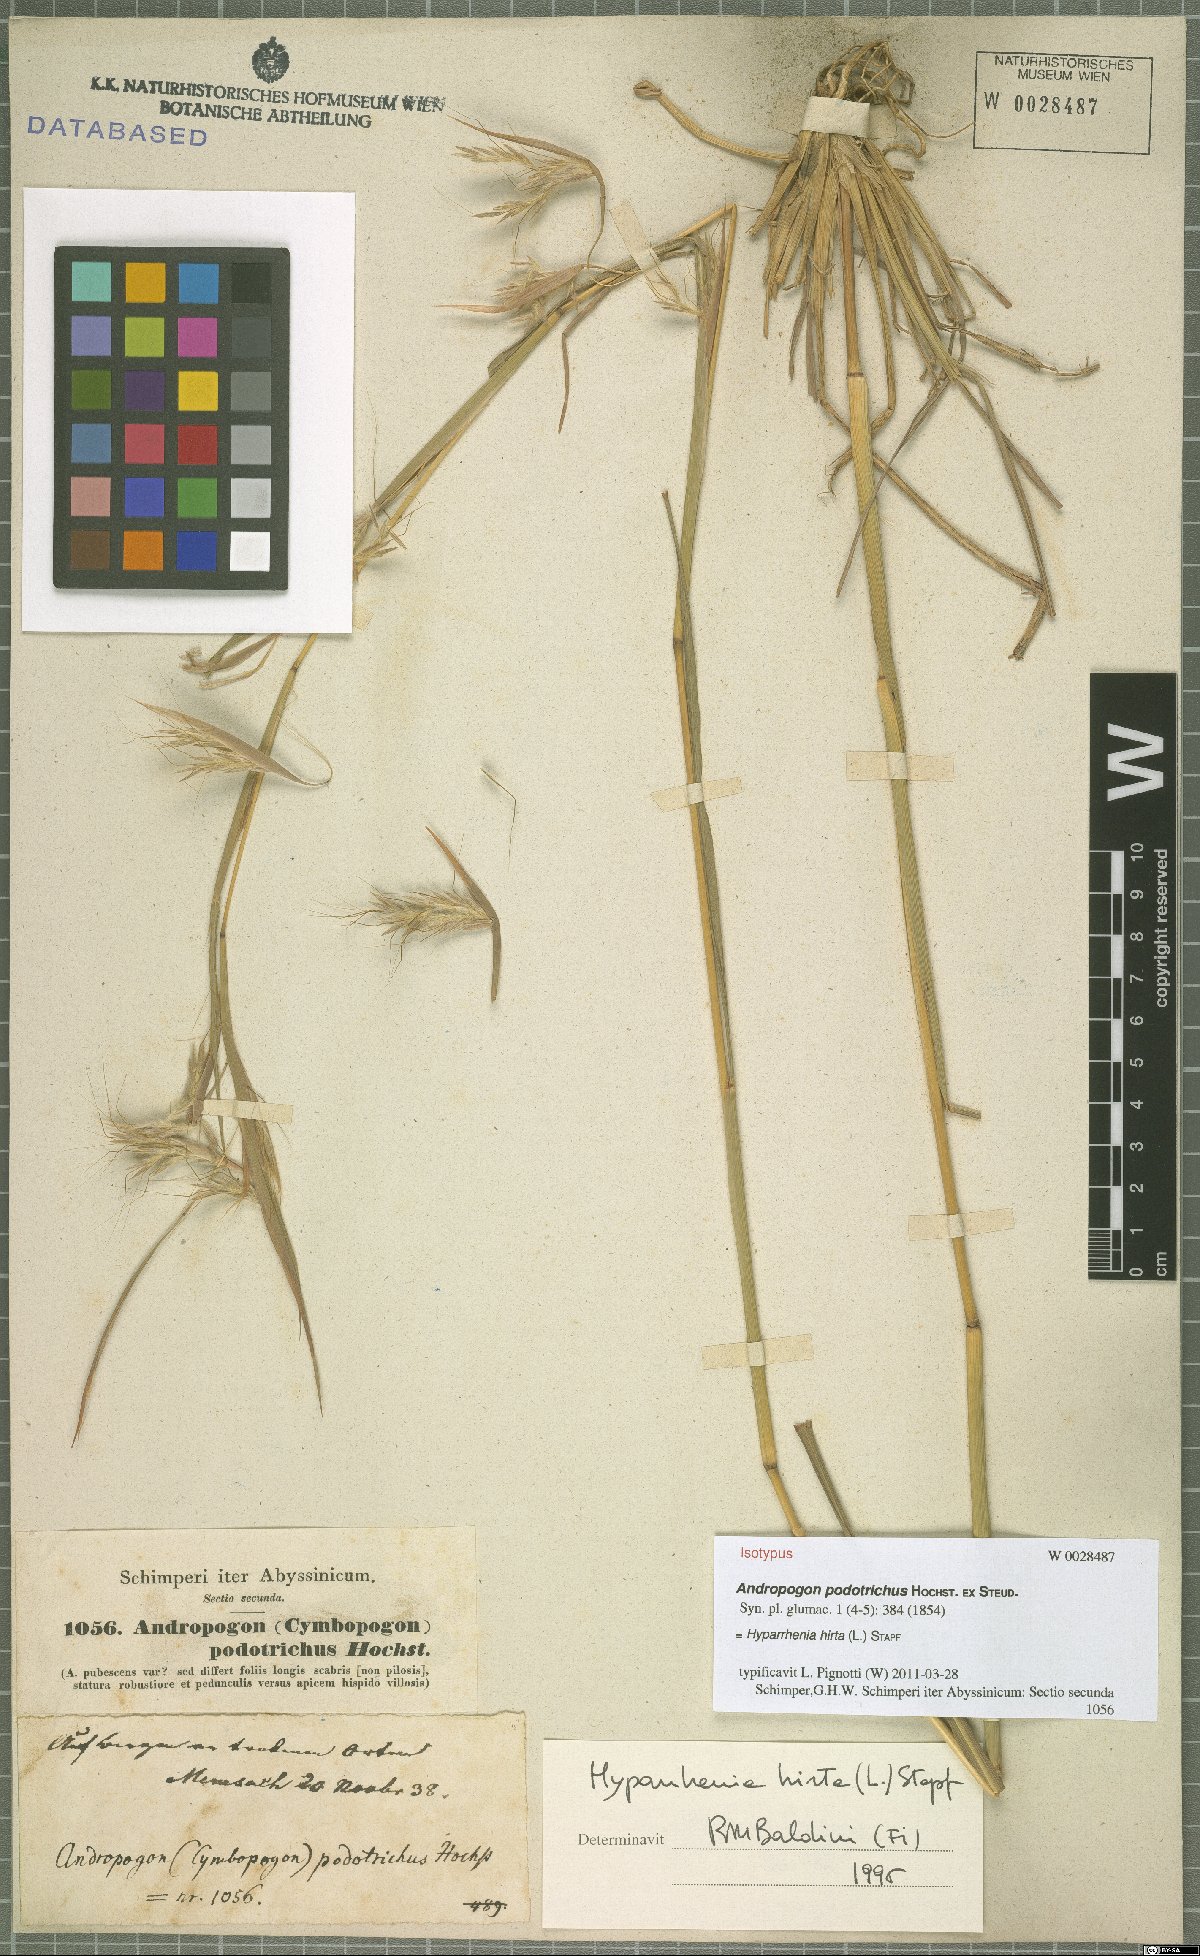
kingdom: Plantae
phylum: Tracheophyta
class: Liliopsida
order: Poales
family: Poaceae
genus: Hyparrhenia
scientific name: Hyparrhenia hirta
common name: Thatching grass
